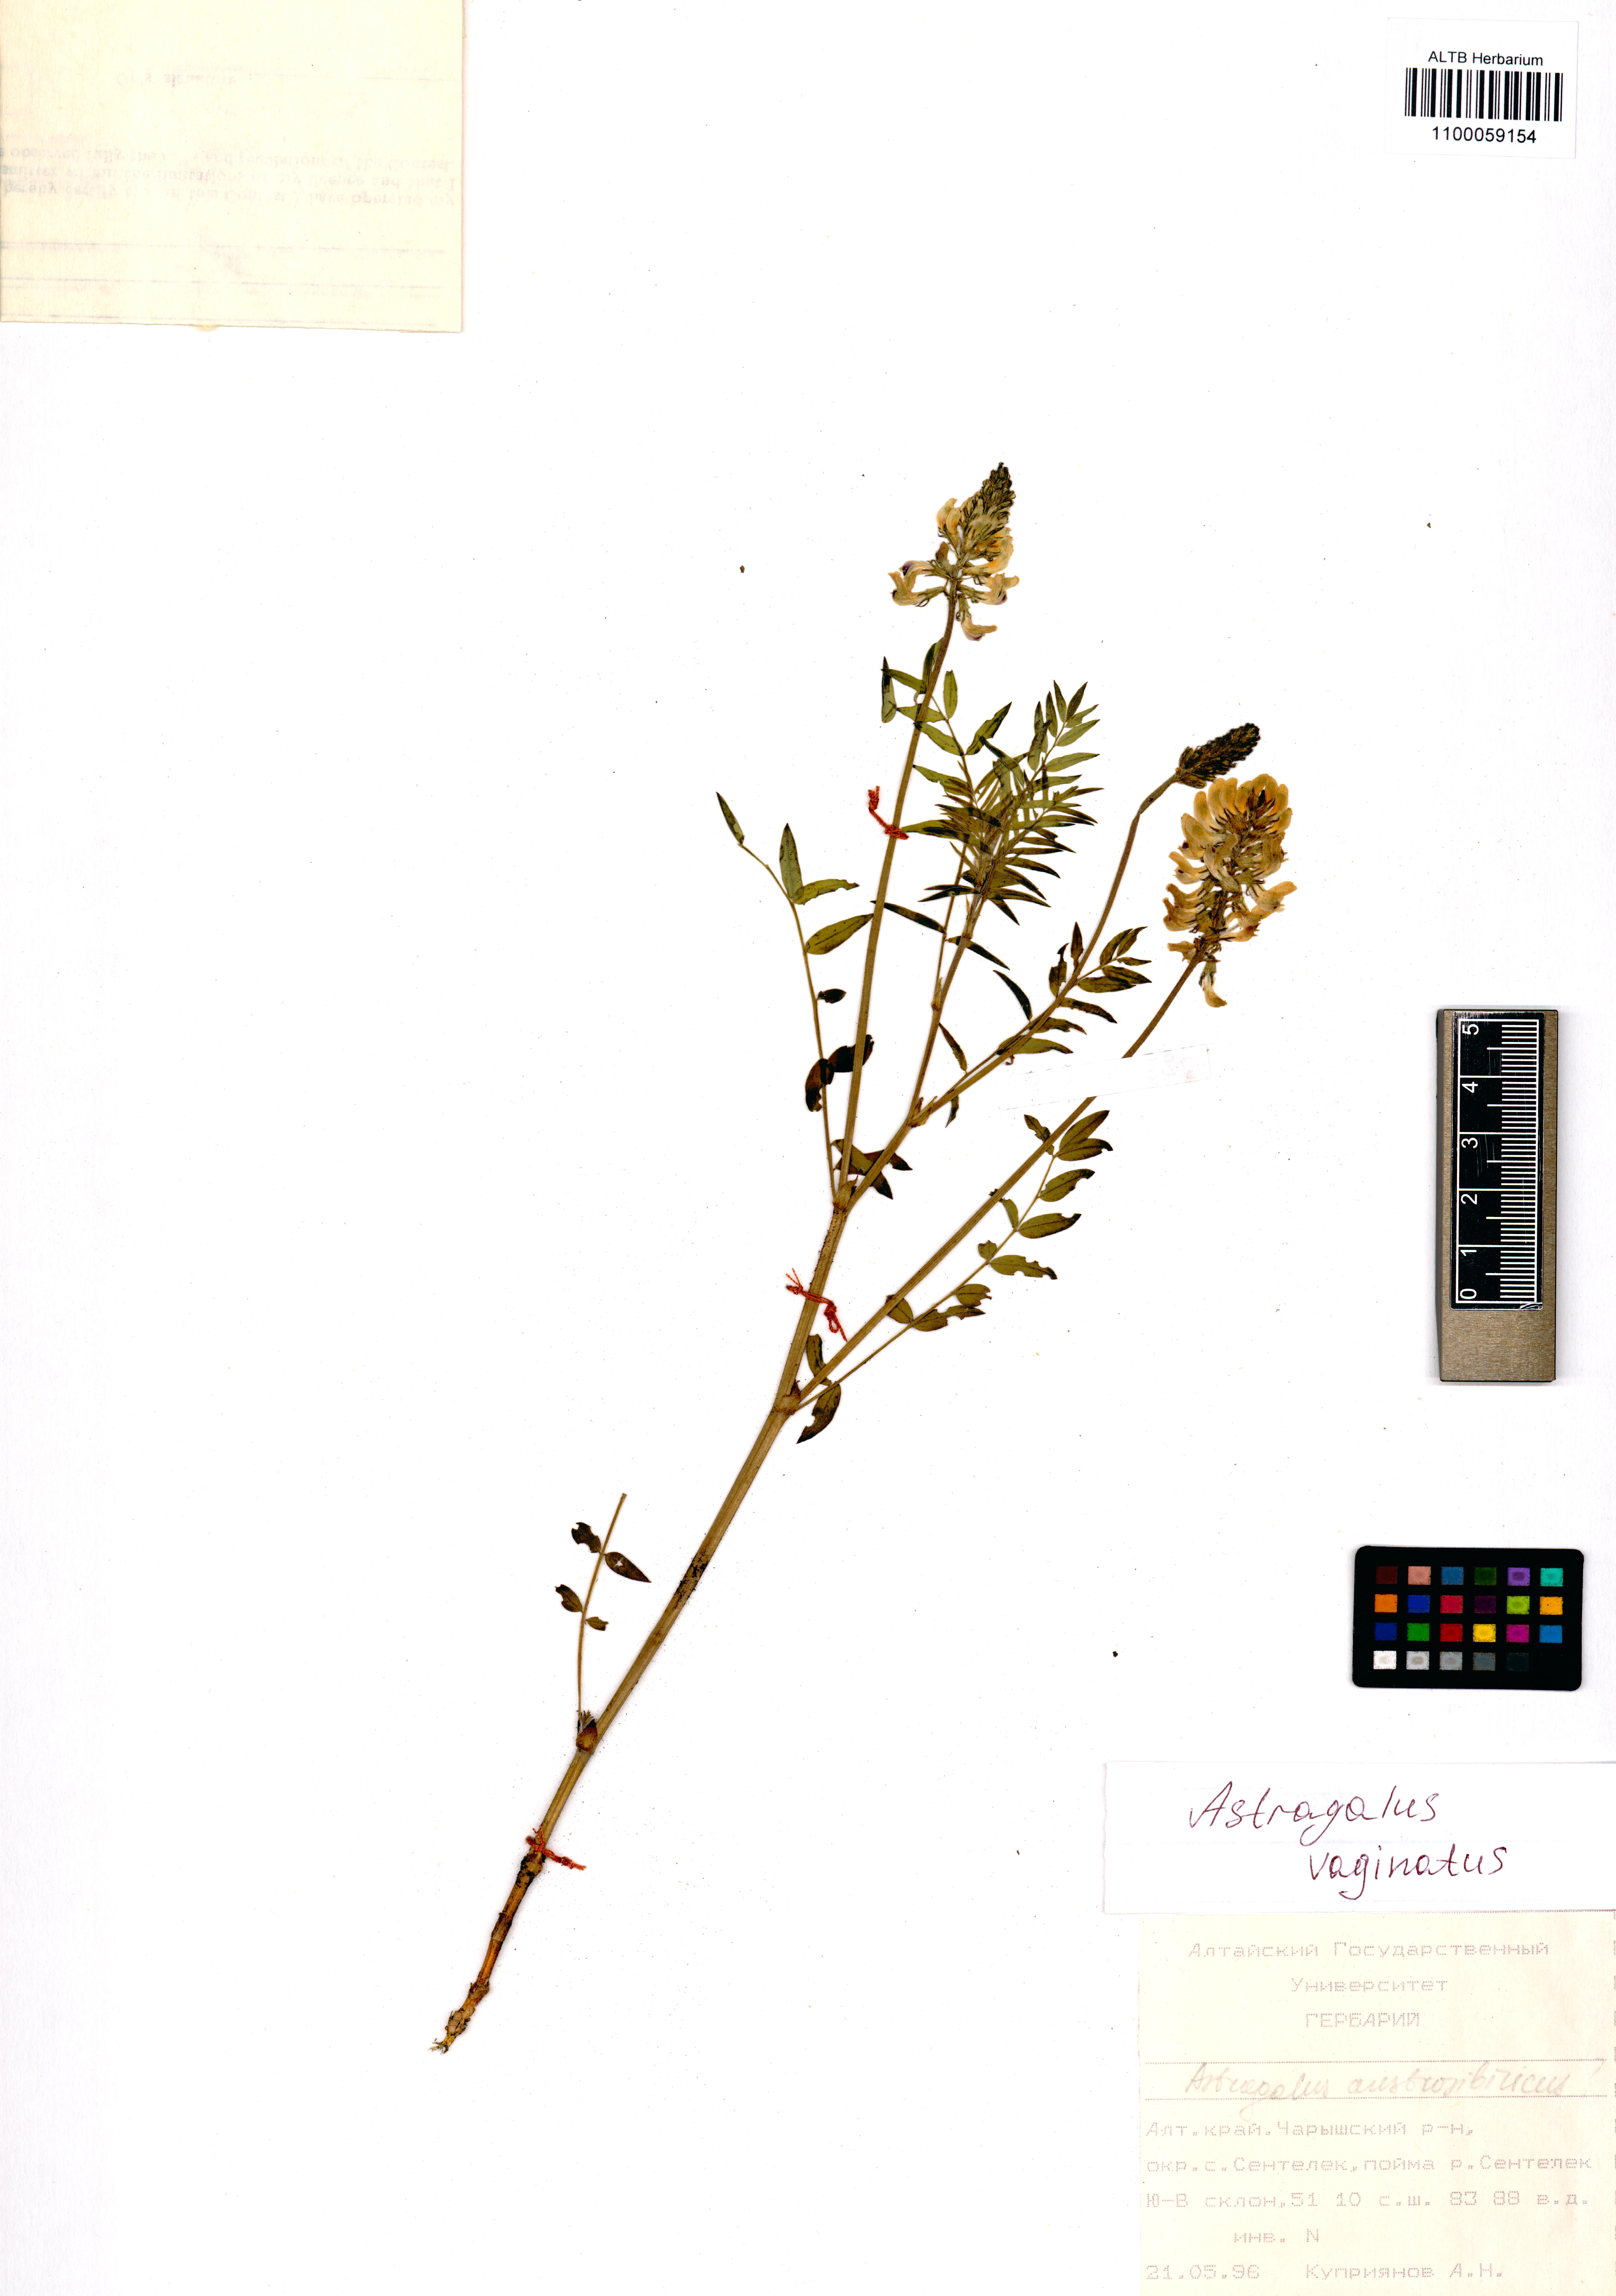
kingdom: Plantae
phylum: Tracheophyta
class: Magnoliopsida
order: Fabales
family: Fabaceae
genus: Astragalus
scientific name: Astragalus vaginatus
